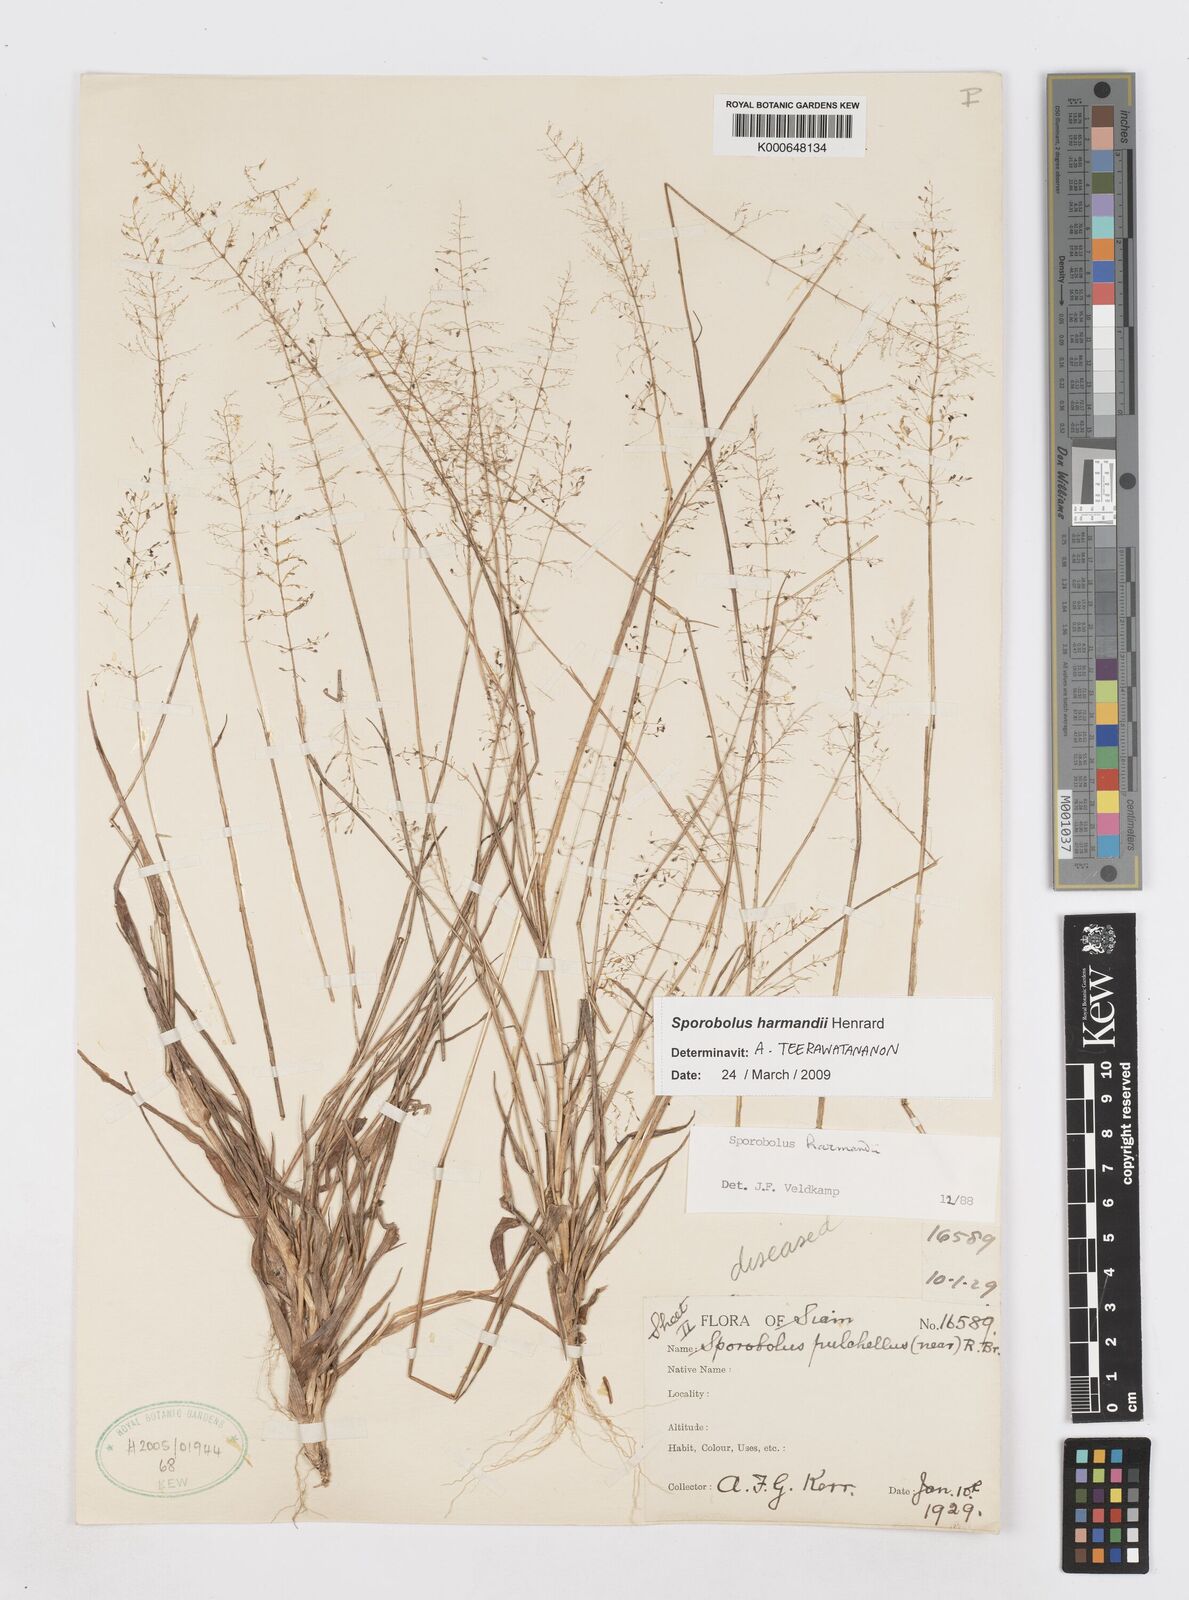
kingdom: Plantae
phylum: Tracheophyta
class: Liliopsida
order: Poales
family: Poaceae
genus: Sporobolus
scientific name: Sporobolus harmandii
